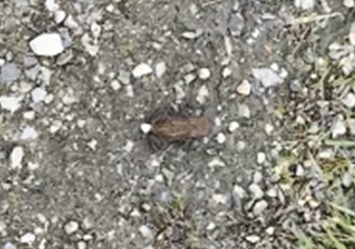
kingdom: Animalia
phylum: Chordata
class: Amphibia
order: Anura
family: Bufonidae
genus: Bufo
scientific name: Bufo bufo
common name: Skrubtudse
